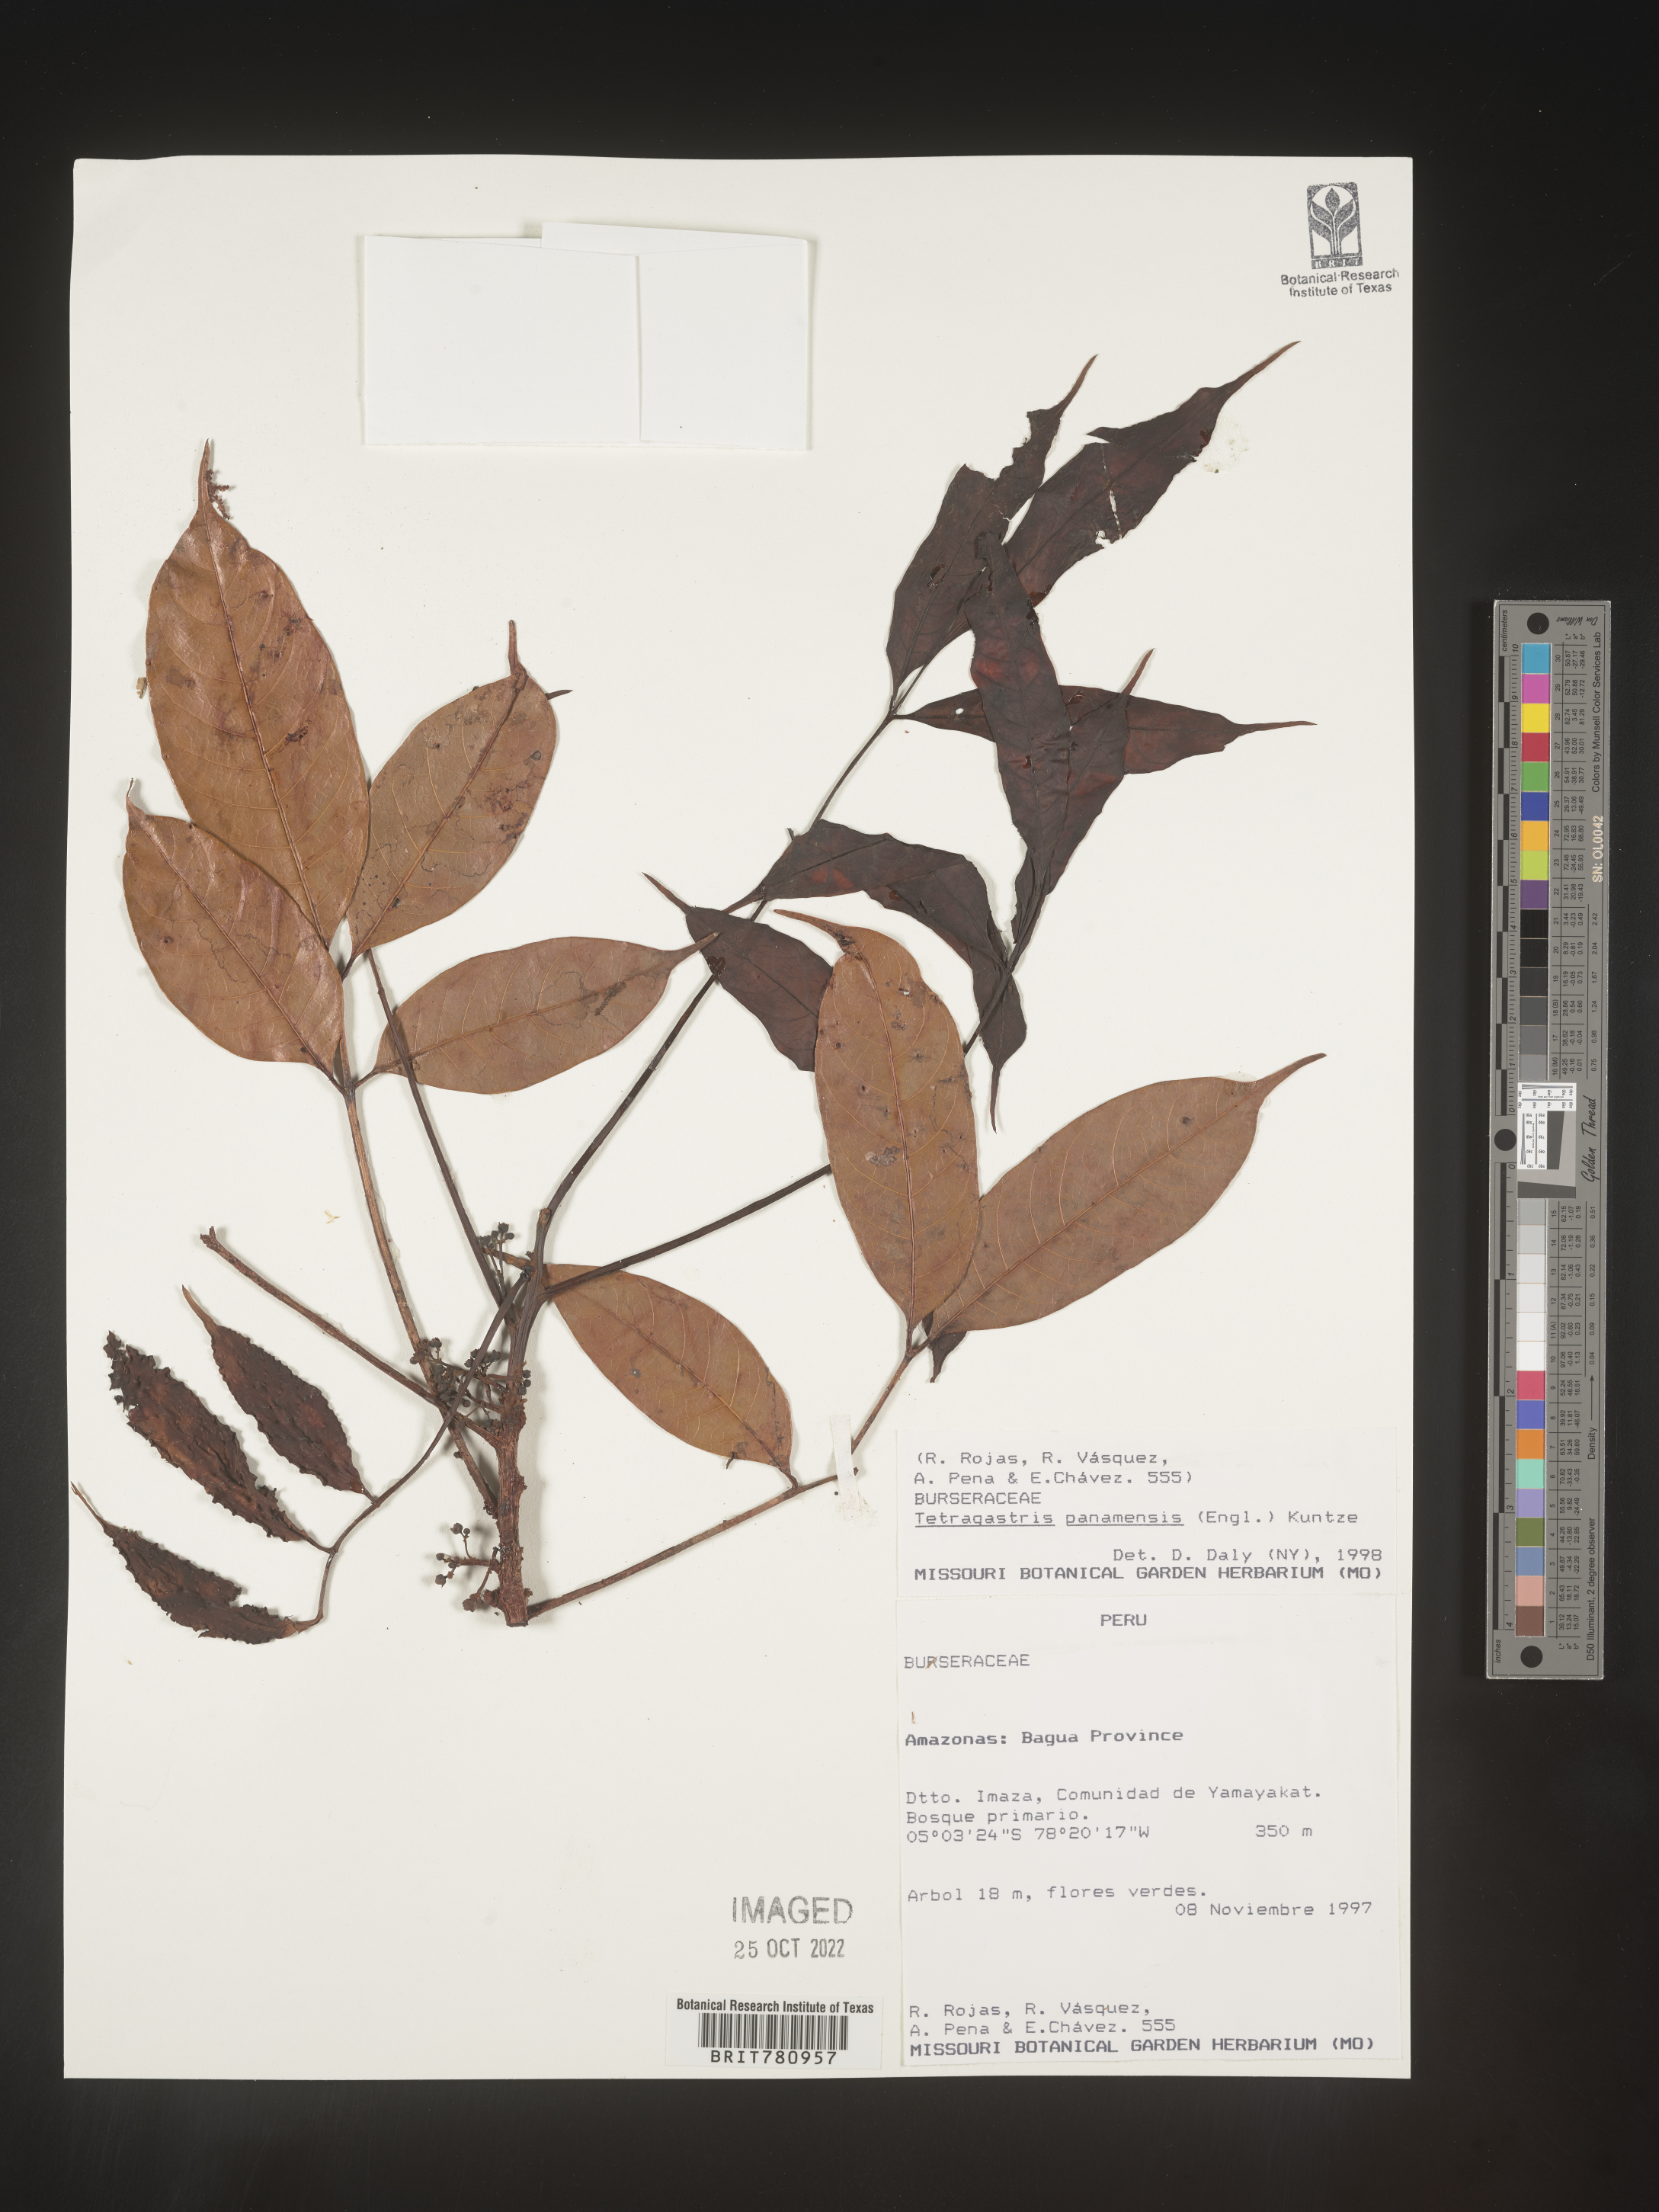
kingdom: Plantae
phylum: Tracheophyta
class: Magnoliopsida
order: Sapindales
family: Burseraceae
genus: Tetragastris
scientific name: Tetragastris
